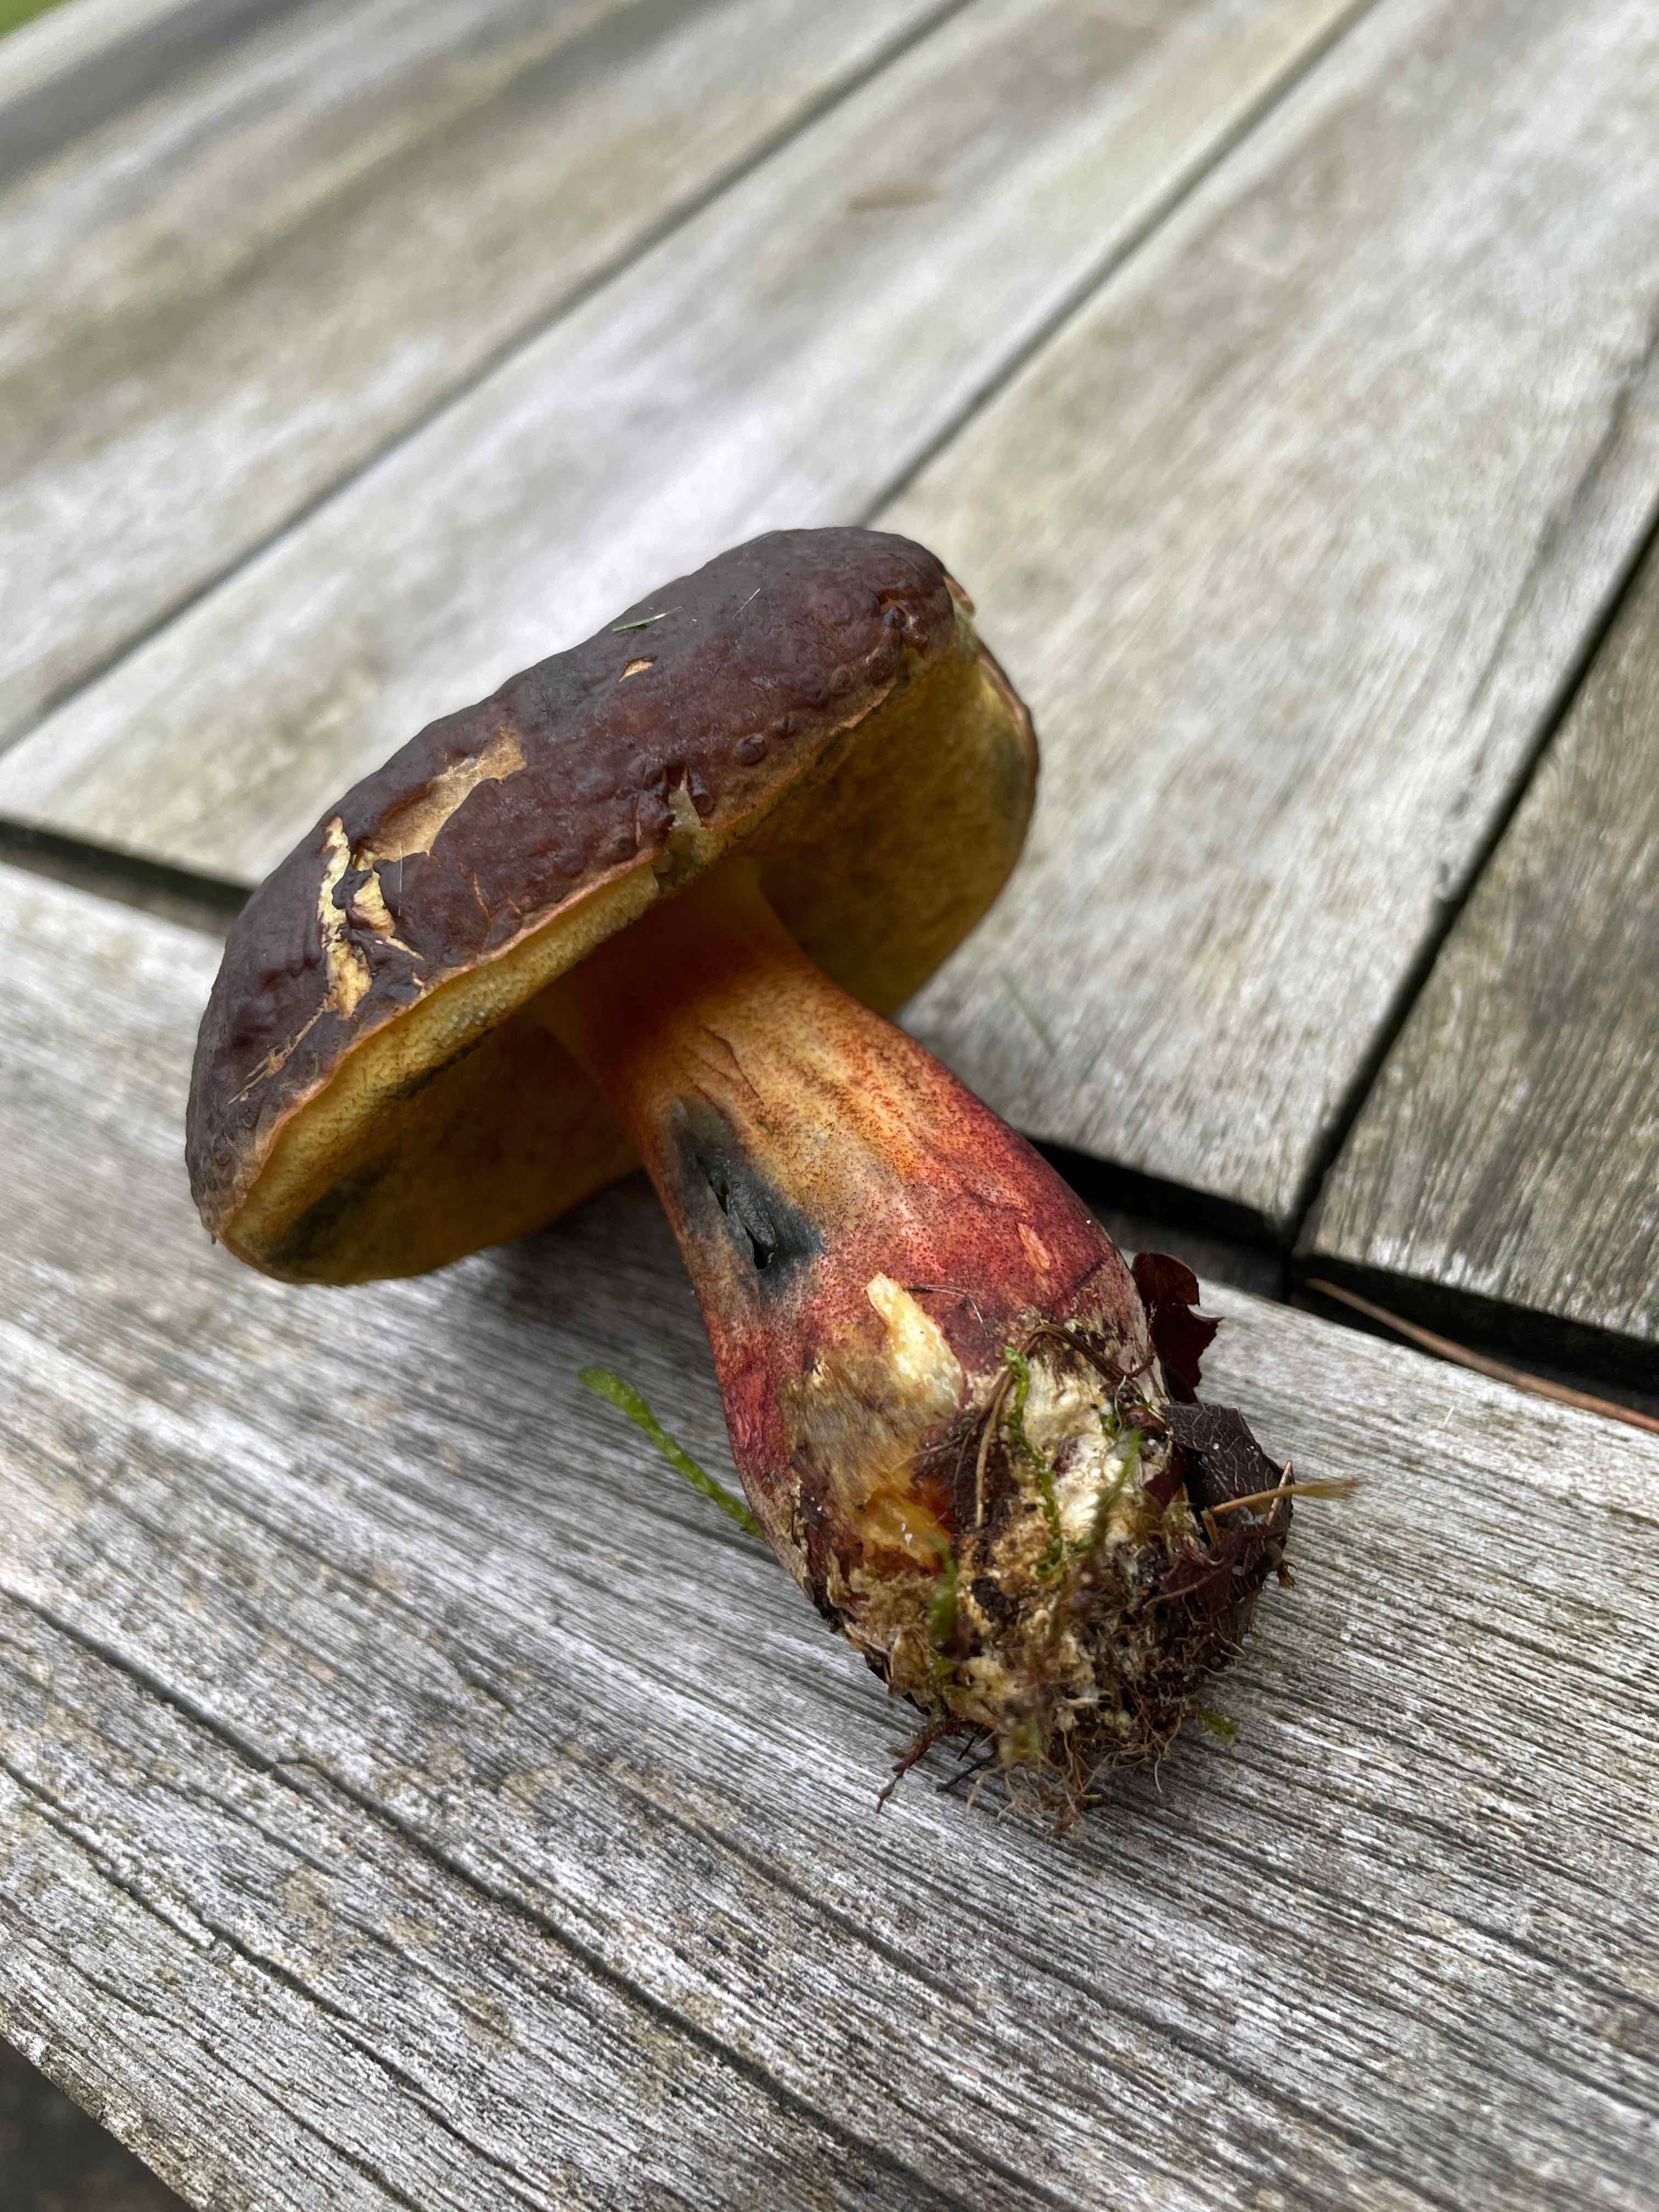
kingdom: Fungi
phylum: Basidiomycota
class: Agaricomycetes
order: Boletales
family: Boletaceae
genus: Xerocomellus
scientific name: Xerocomellus pruinatus
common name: dugget rørhat
